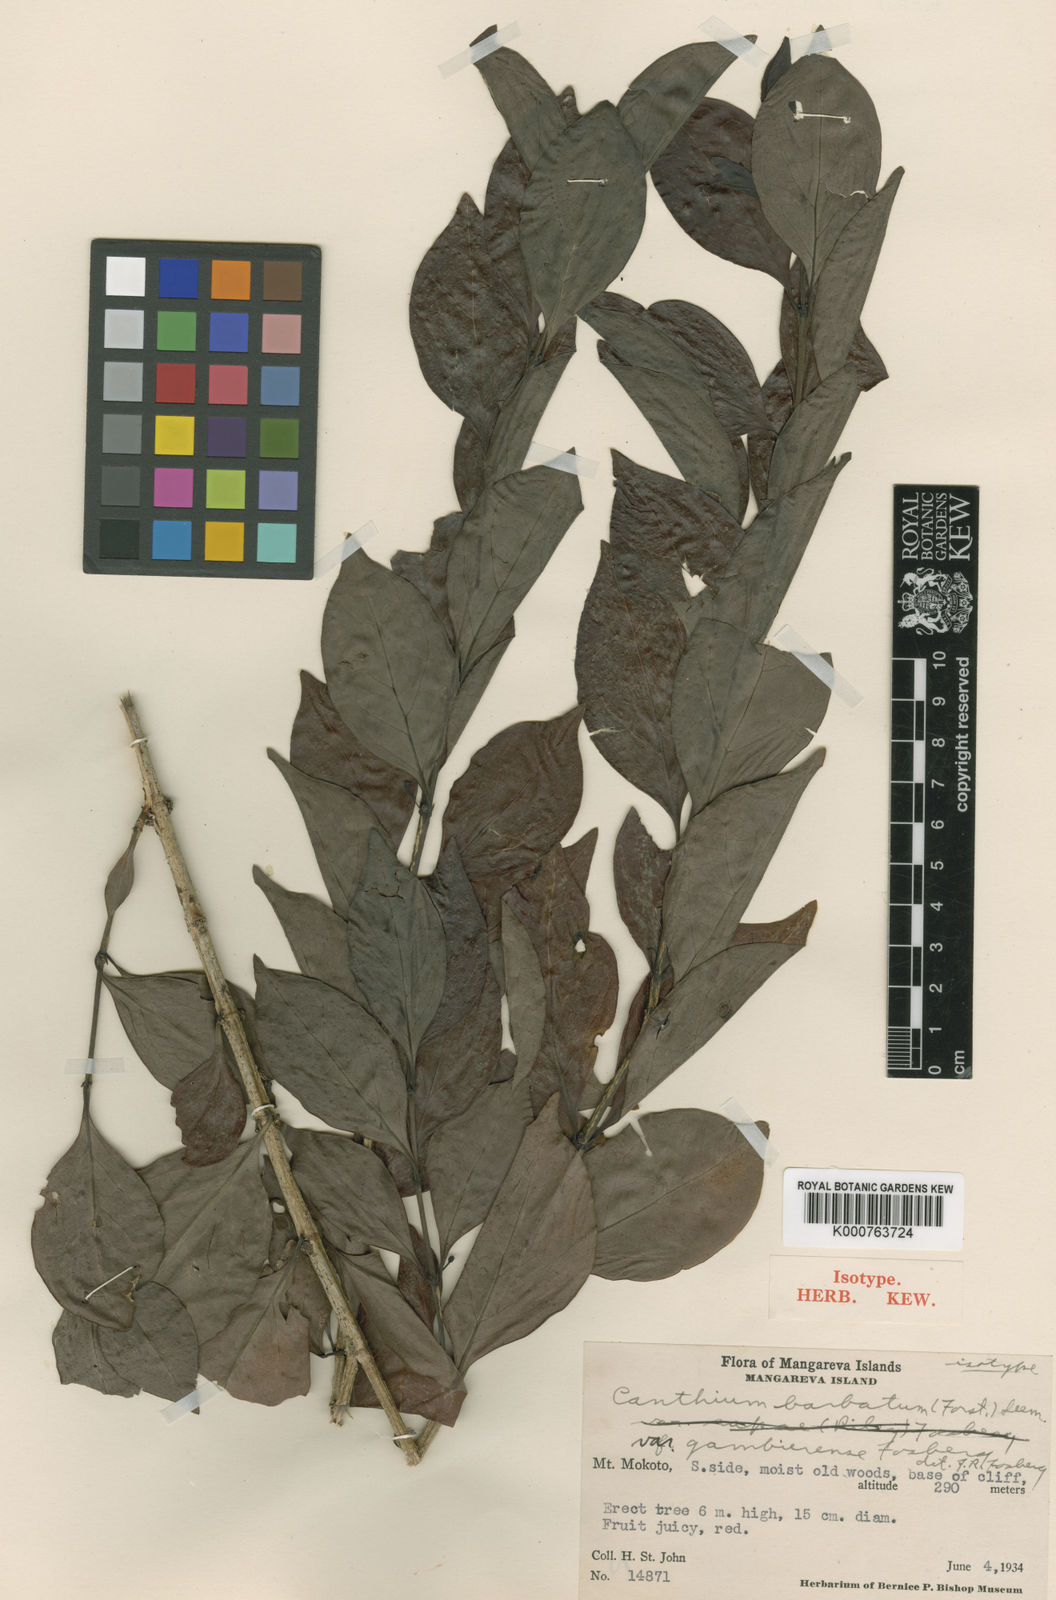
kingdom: Plantae
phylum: Tracheophyta
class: Magnoliopsida
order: Gentianales
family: Rubiaceae
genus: Cyclophyllum
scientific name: Cyclophyllum
